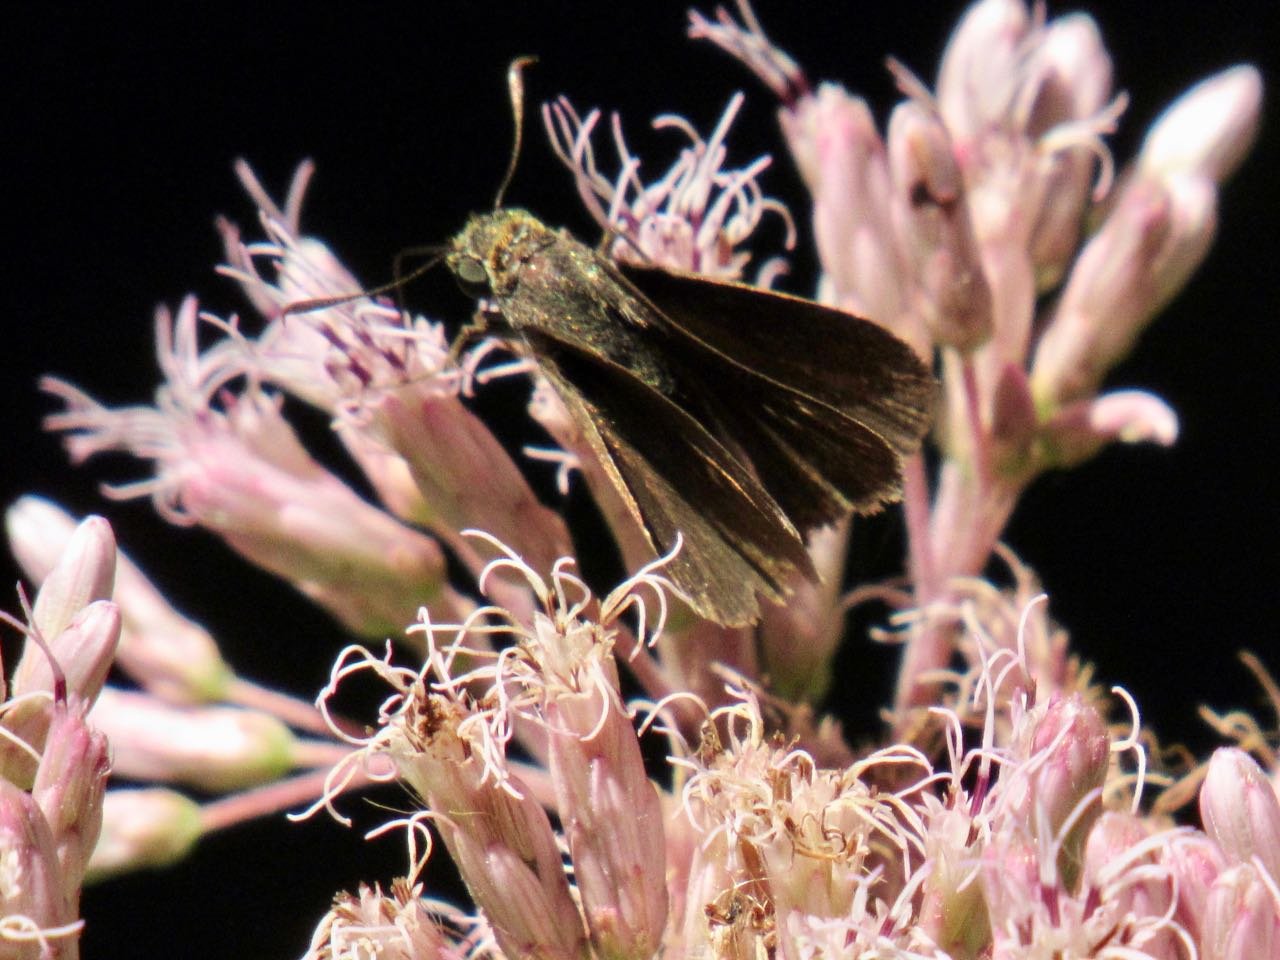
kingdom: Animalia
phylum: Arthropoda
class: Insecta
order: Lepidoptera
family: Hesperiidae
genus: Euphyes
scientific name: Euphyes vestris
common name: Dun Skipper
